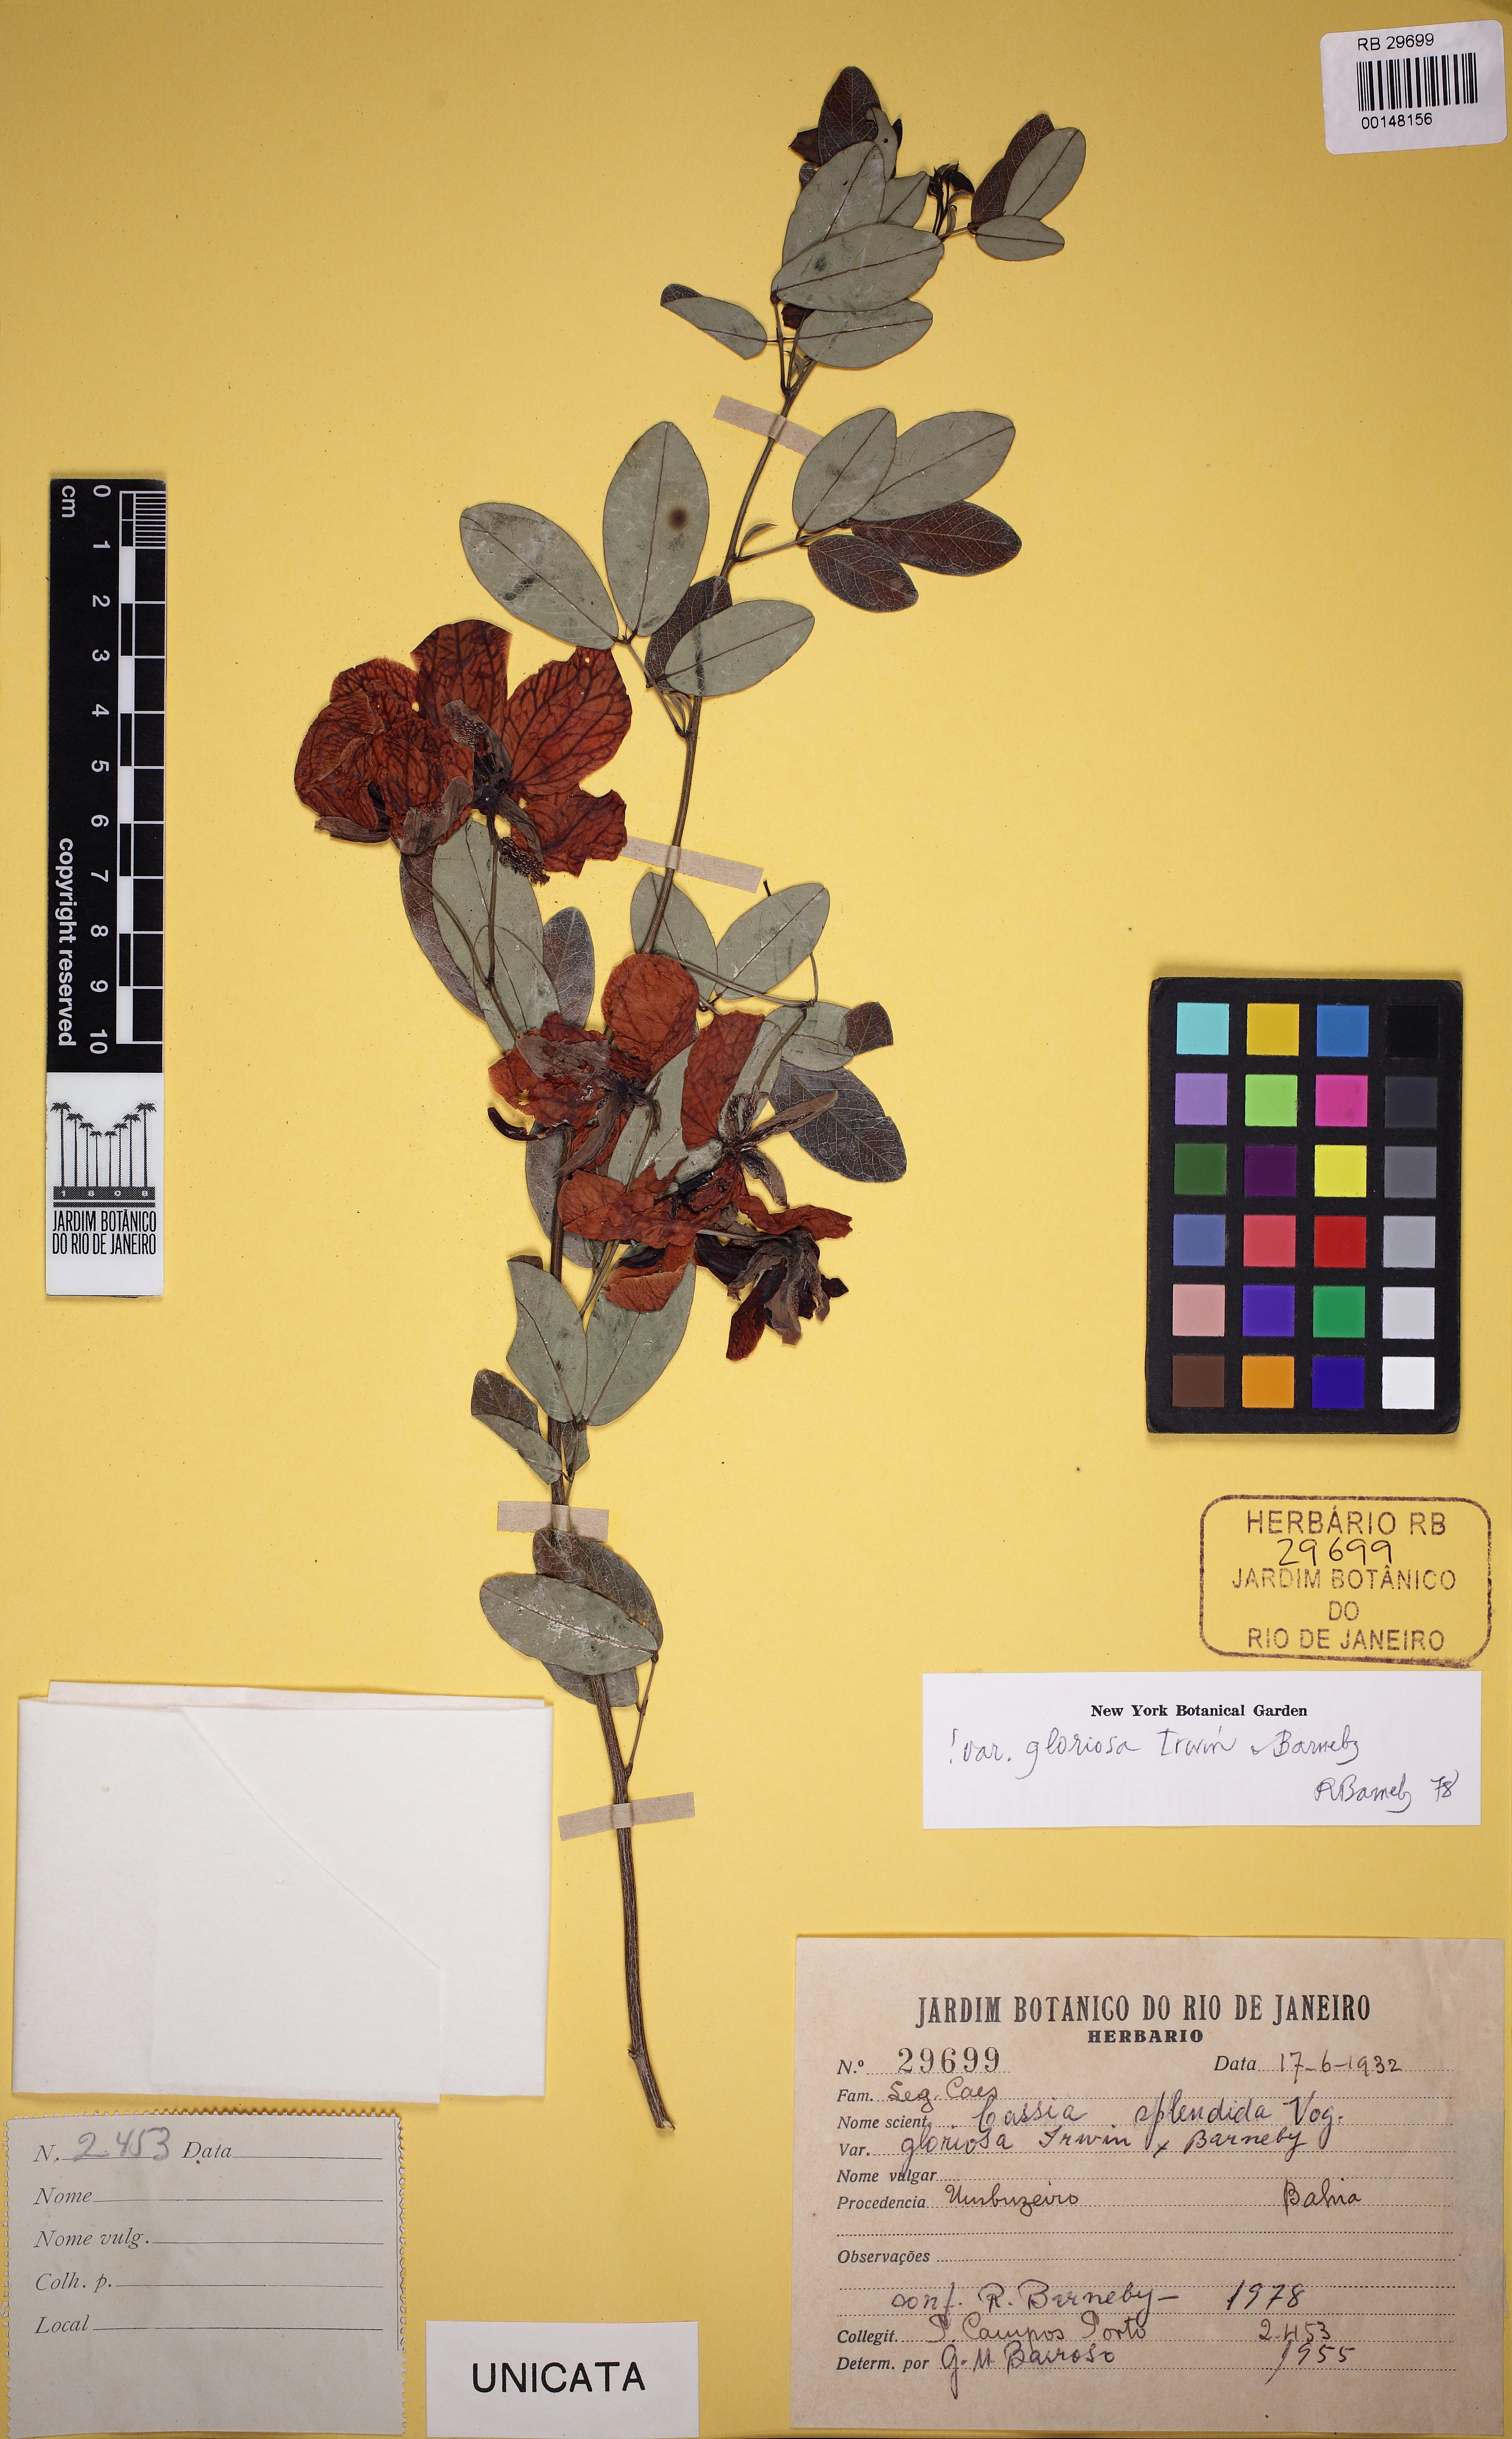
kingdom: Plantae
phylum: Tracheophyta
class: Magnoliopsida
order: Fabales
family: Fabaceae
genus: Senna
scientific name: Senna splendida
